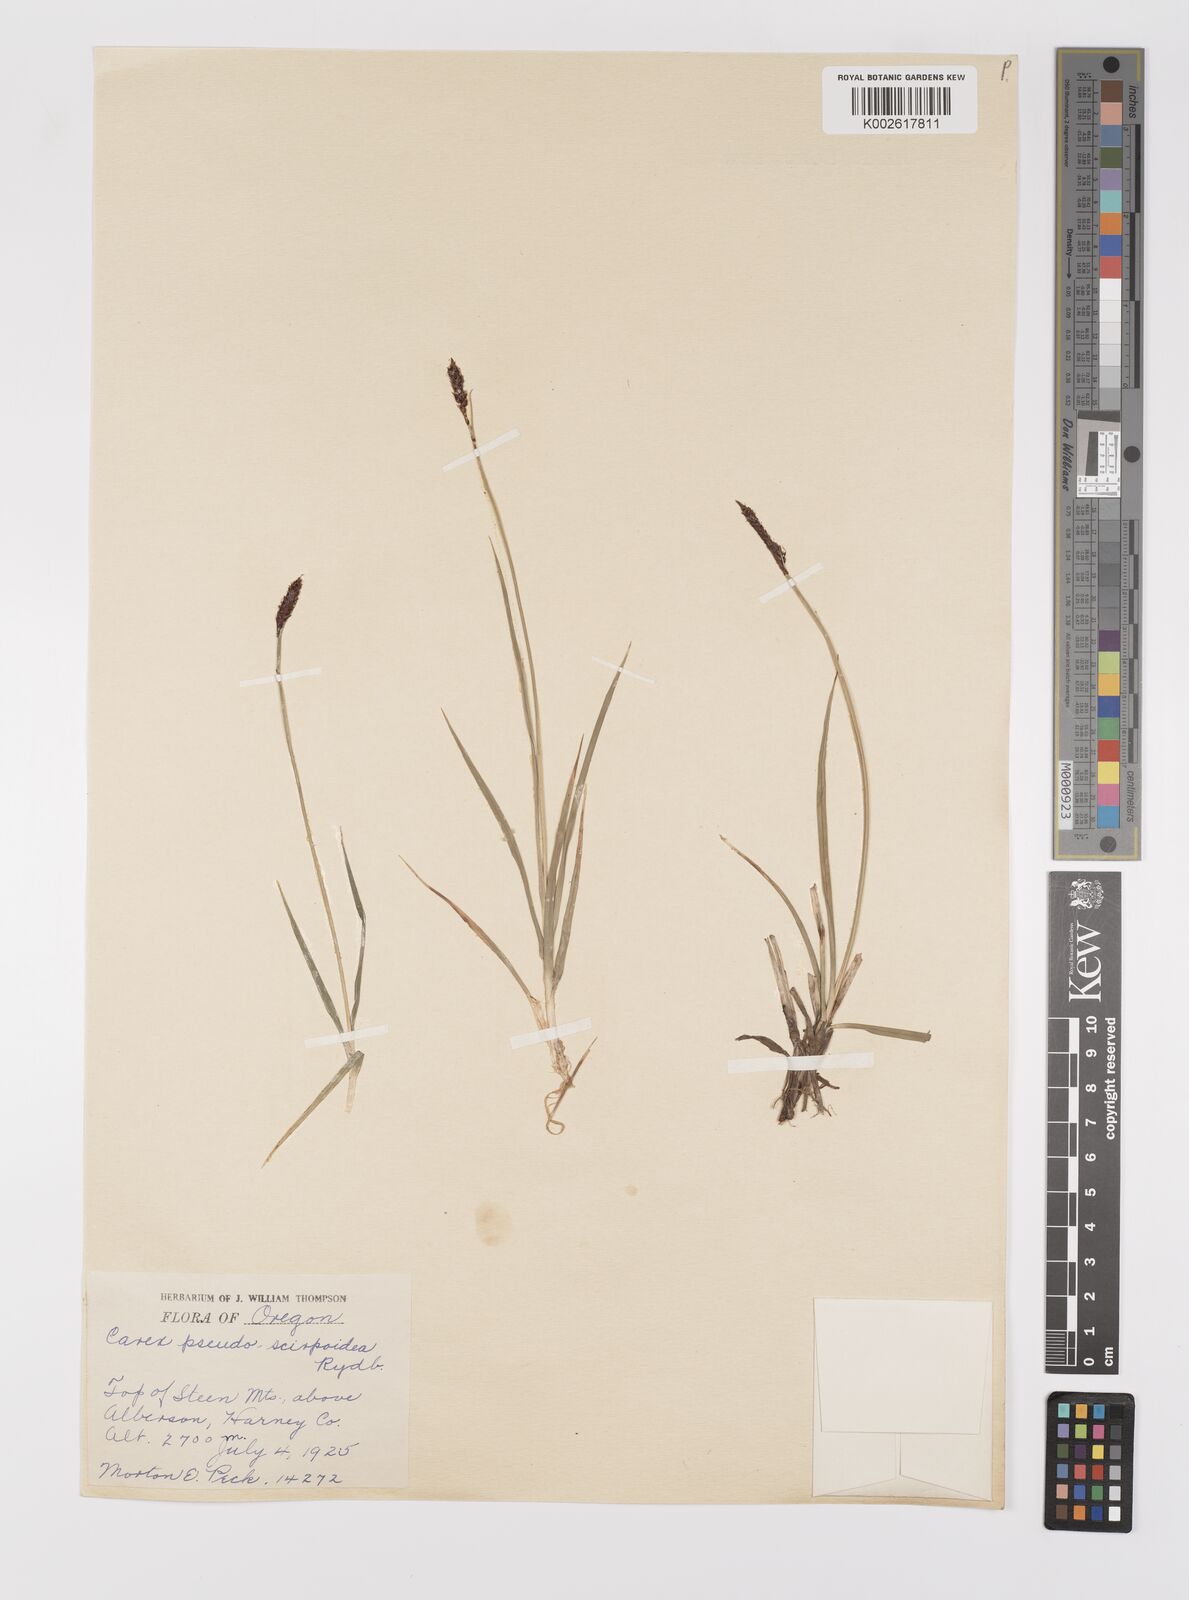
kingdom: Plantae
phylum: Tracheophyta
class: Liliopsida
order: Poales
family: Cyperaceae
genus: Carex
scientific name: Carex scirpoidea
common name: Canada single-spike sedge
